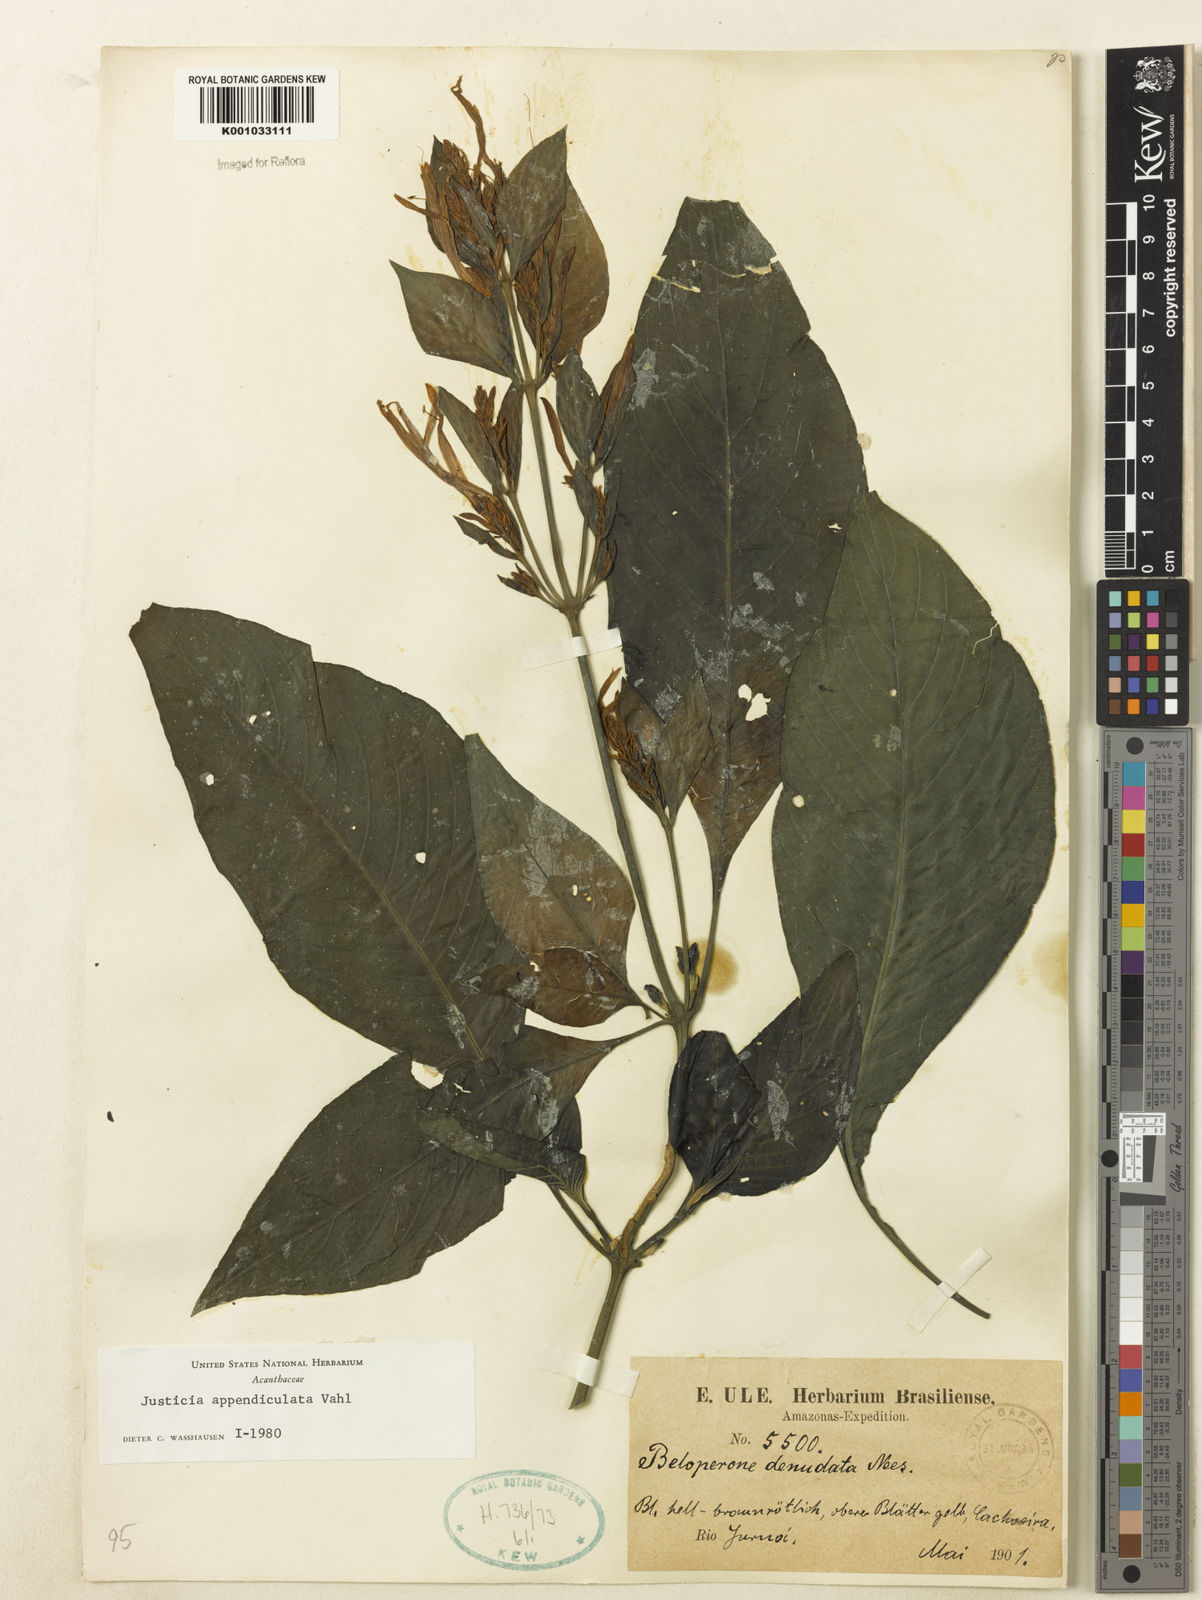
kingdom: Plantae
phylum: Tracheophyta
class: Magnoliopsida
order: Lamiales
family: Acanthaceae
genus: Dianthera
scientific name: Dianthera appendiculata
